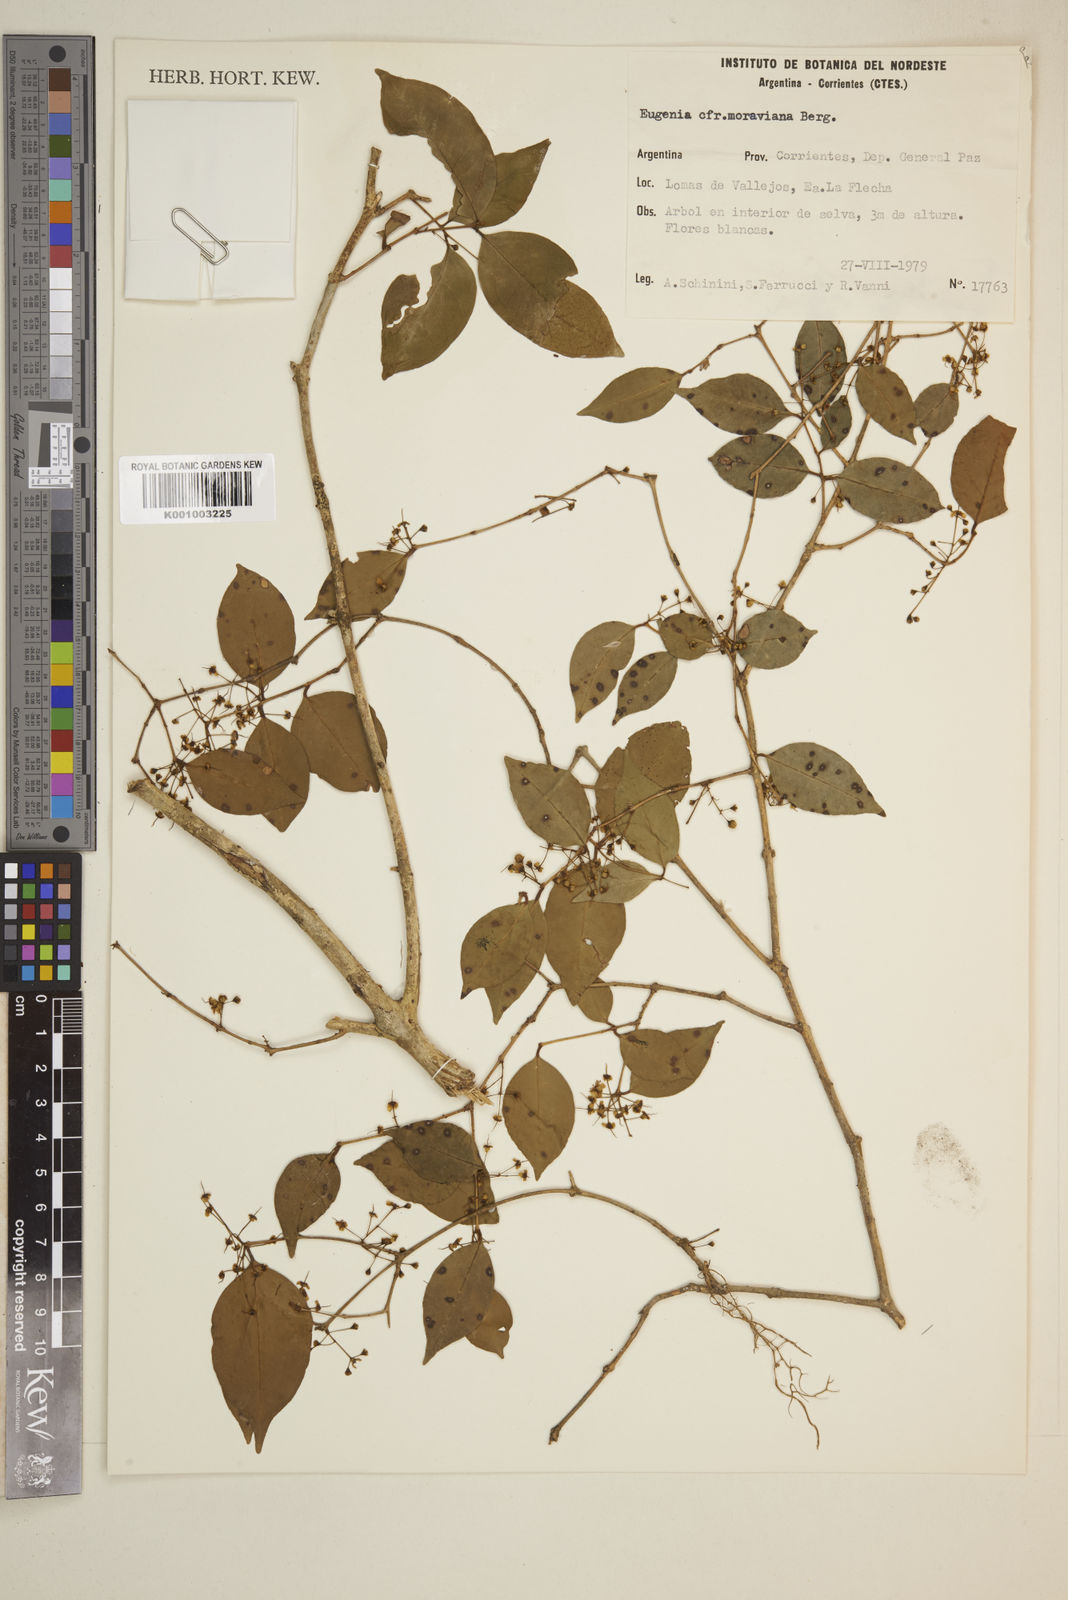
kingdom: Plantae
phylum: Tracheophyta
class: Magnoliopsida
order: Myrtales
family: Myrtaceae
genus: Eugenia
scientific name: Eugenia moraviana
